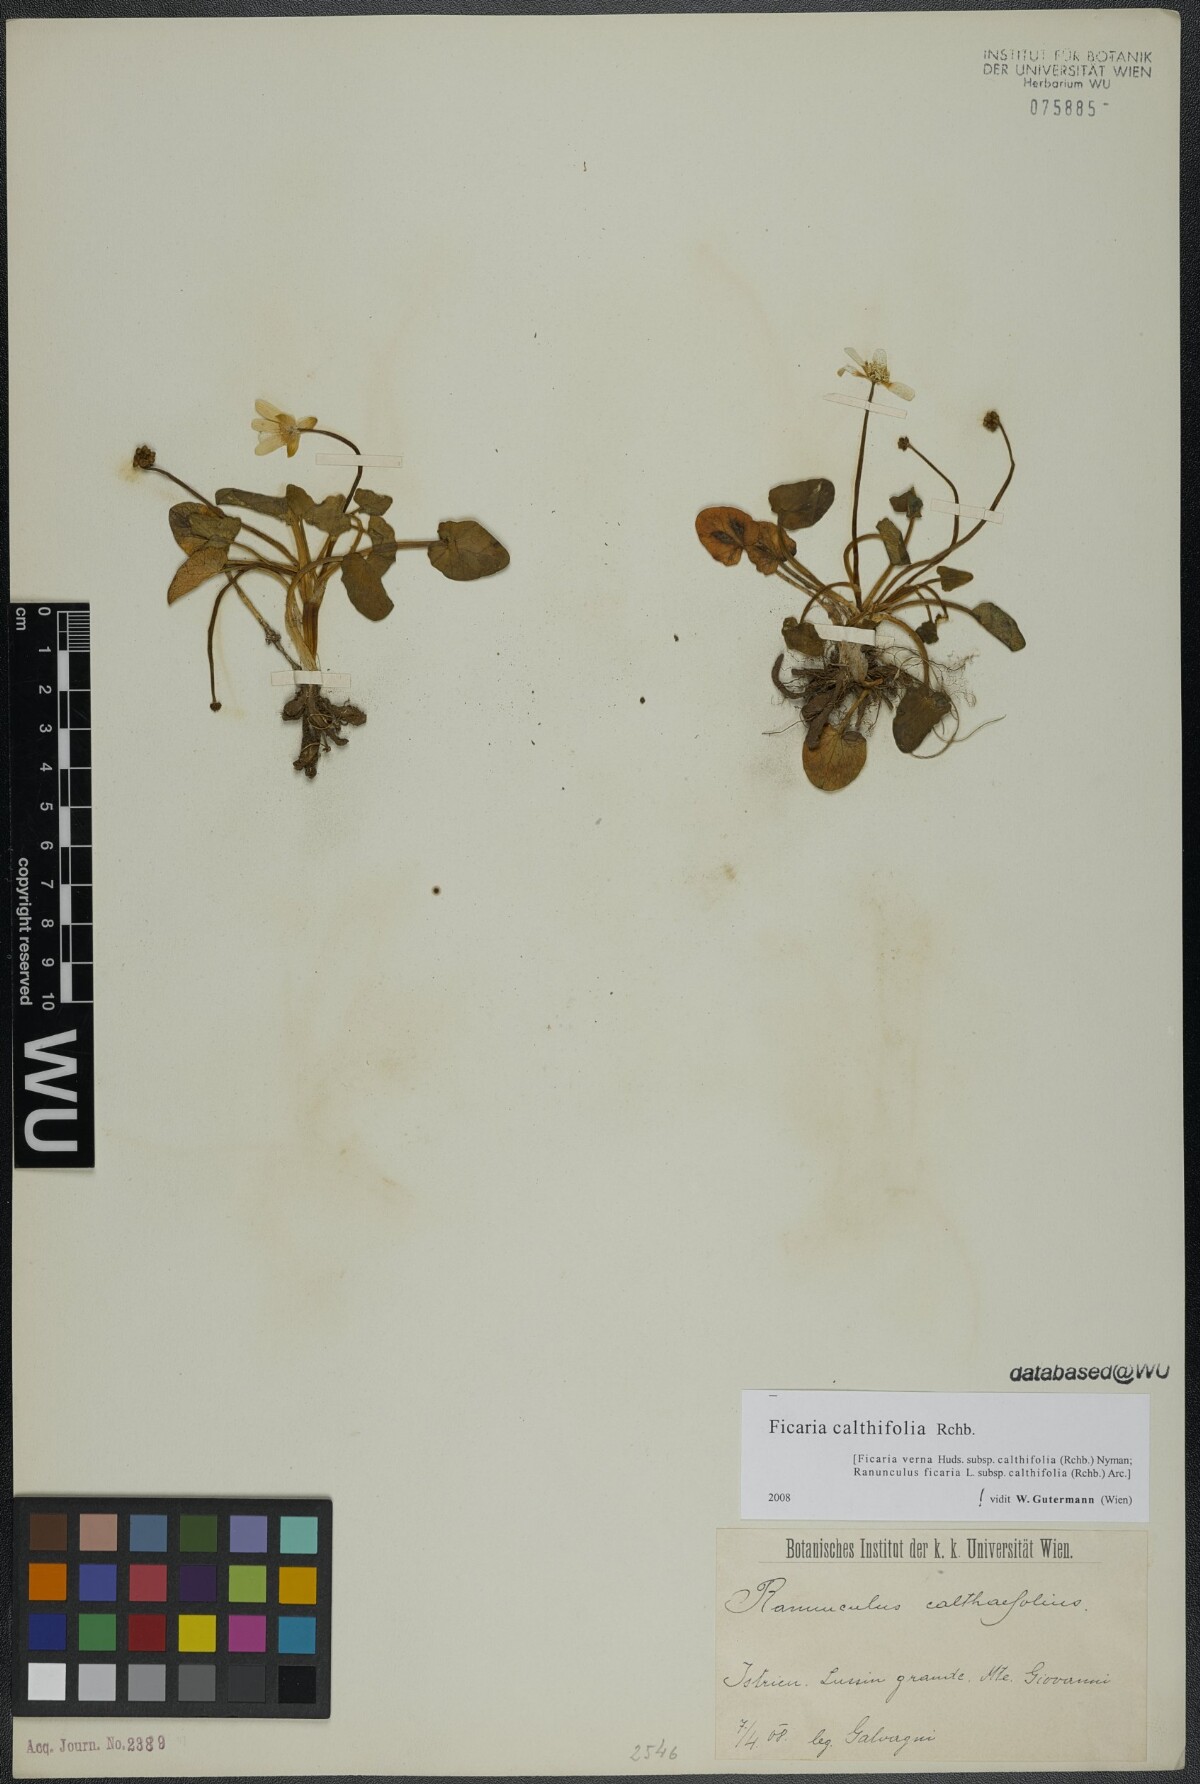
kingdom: Plantae
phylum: Tracheophyta
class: Magnoliopsida
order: Ranunculales
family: Ranunculaceae
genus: Ficaria
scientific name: Ficaria calthifolia
